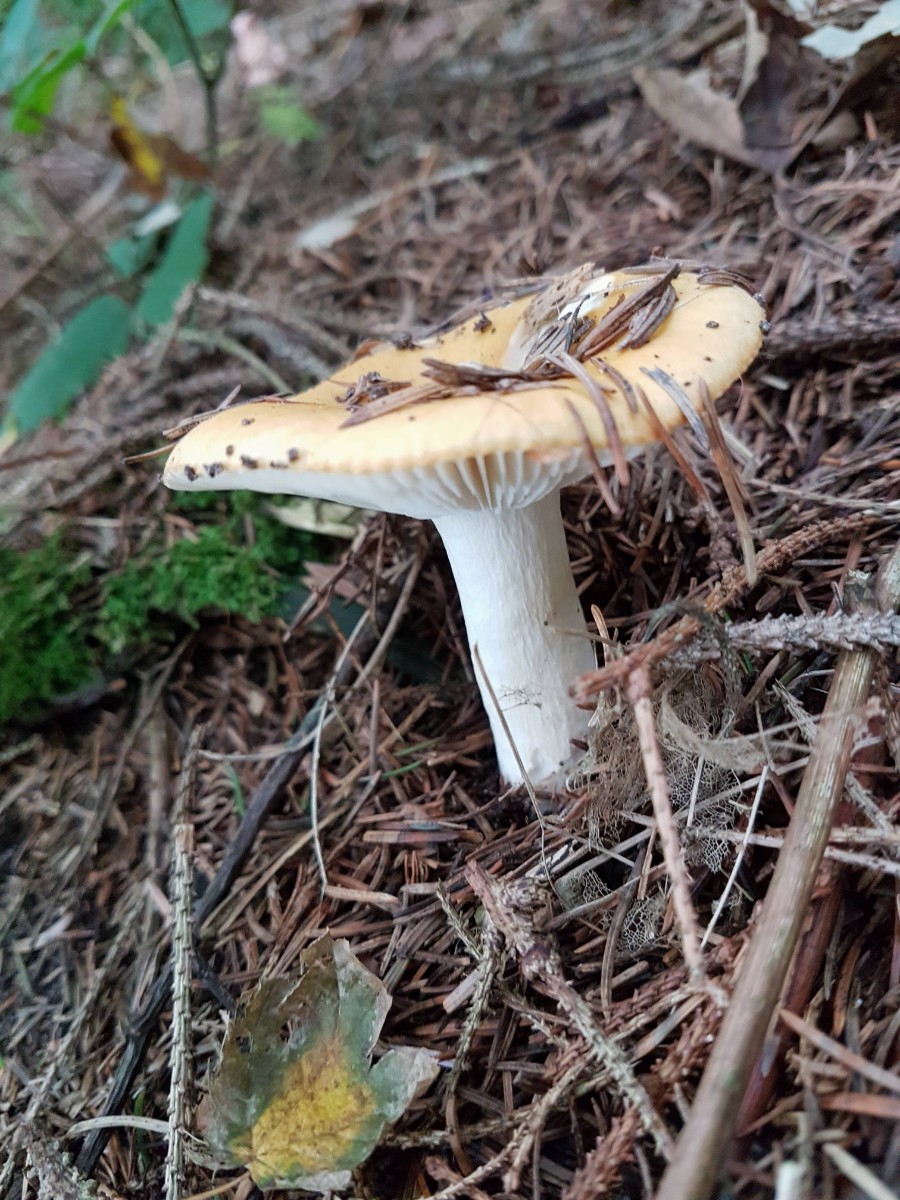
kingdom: Fungi
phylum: Basidiomycota
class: Agaricomycetes
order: Russulales
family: Russulaceae
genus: Russula
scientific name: Russula
